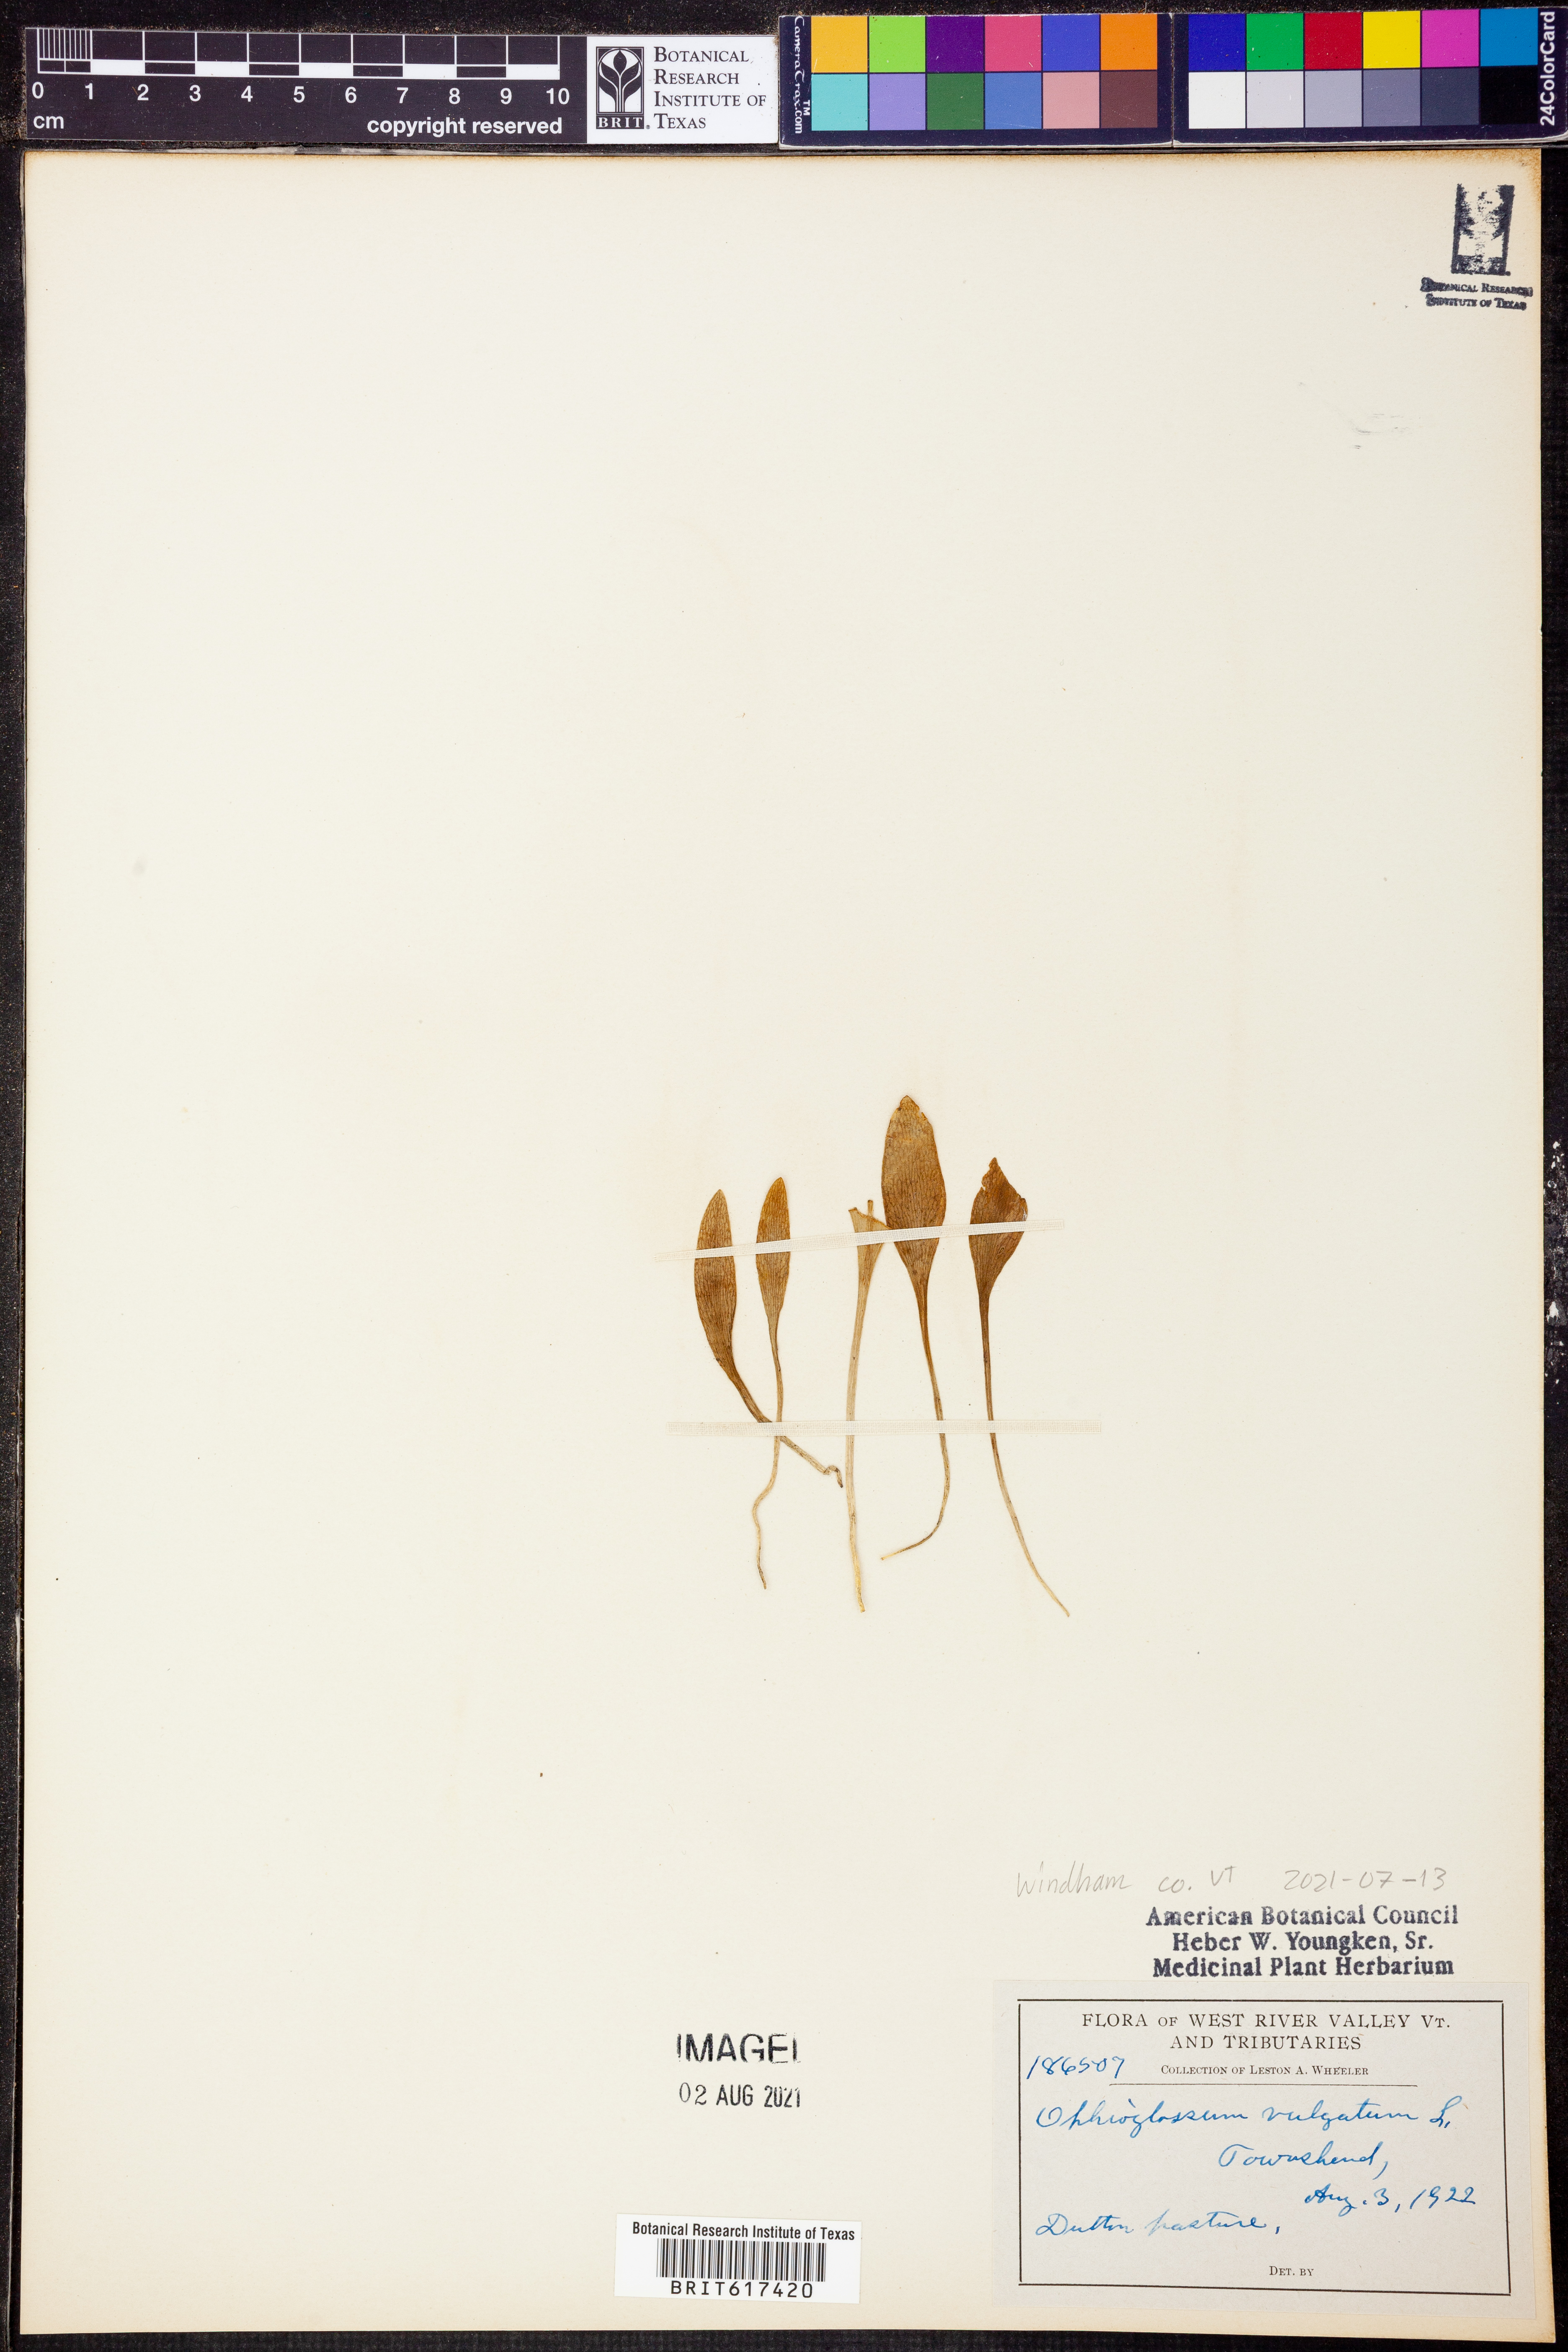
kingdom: Plantae
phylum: Tracheophyta
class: Polypodiopsida
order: Ophioglossales
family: Ophioglossaceae
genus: Ophioglossum
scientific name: Ophioglossum vulgatum
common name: Adder's-tongue
